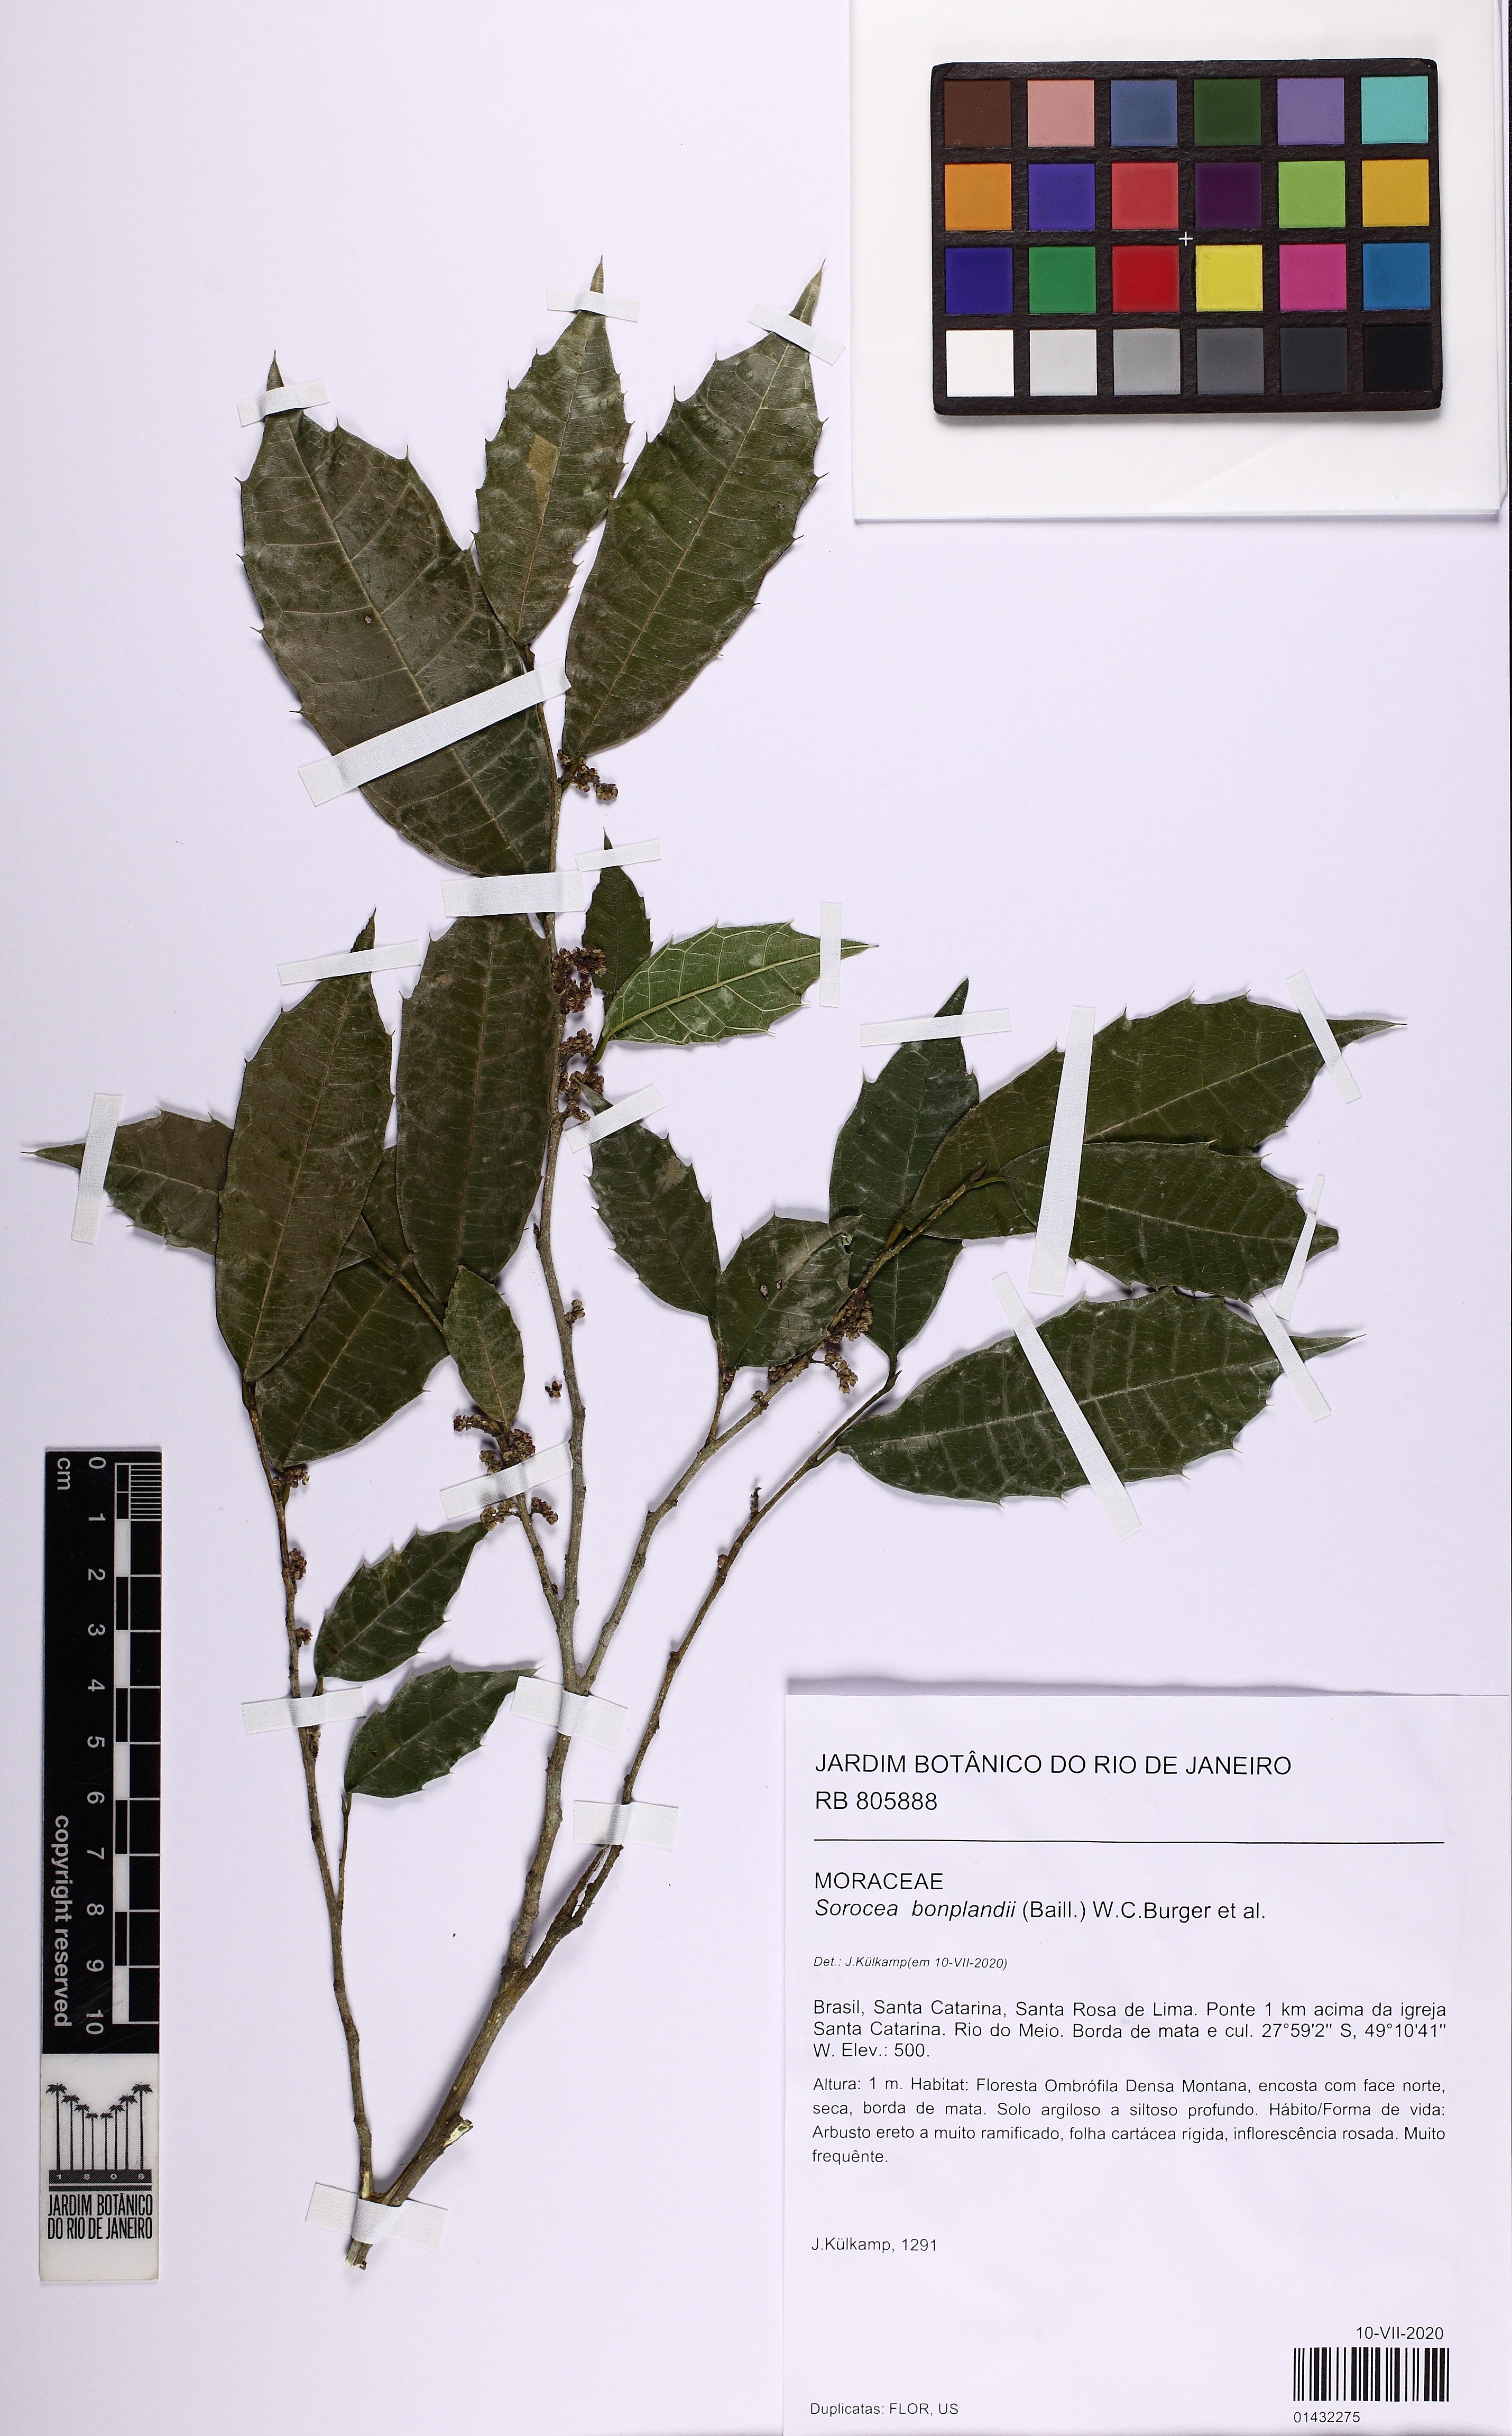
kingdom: Plantae
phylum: Tracheophyta
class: Magnoliopsida
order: Rosales
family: Moraceae
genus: Sorocea
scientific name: Sorocea bonplandii
